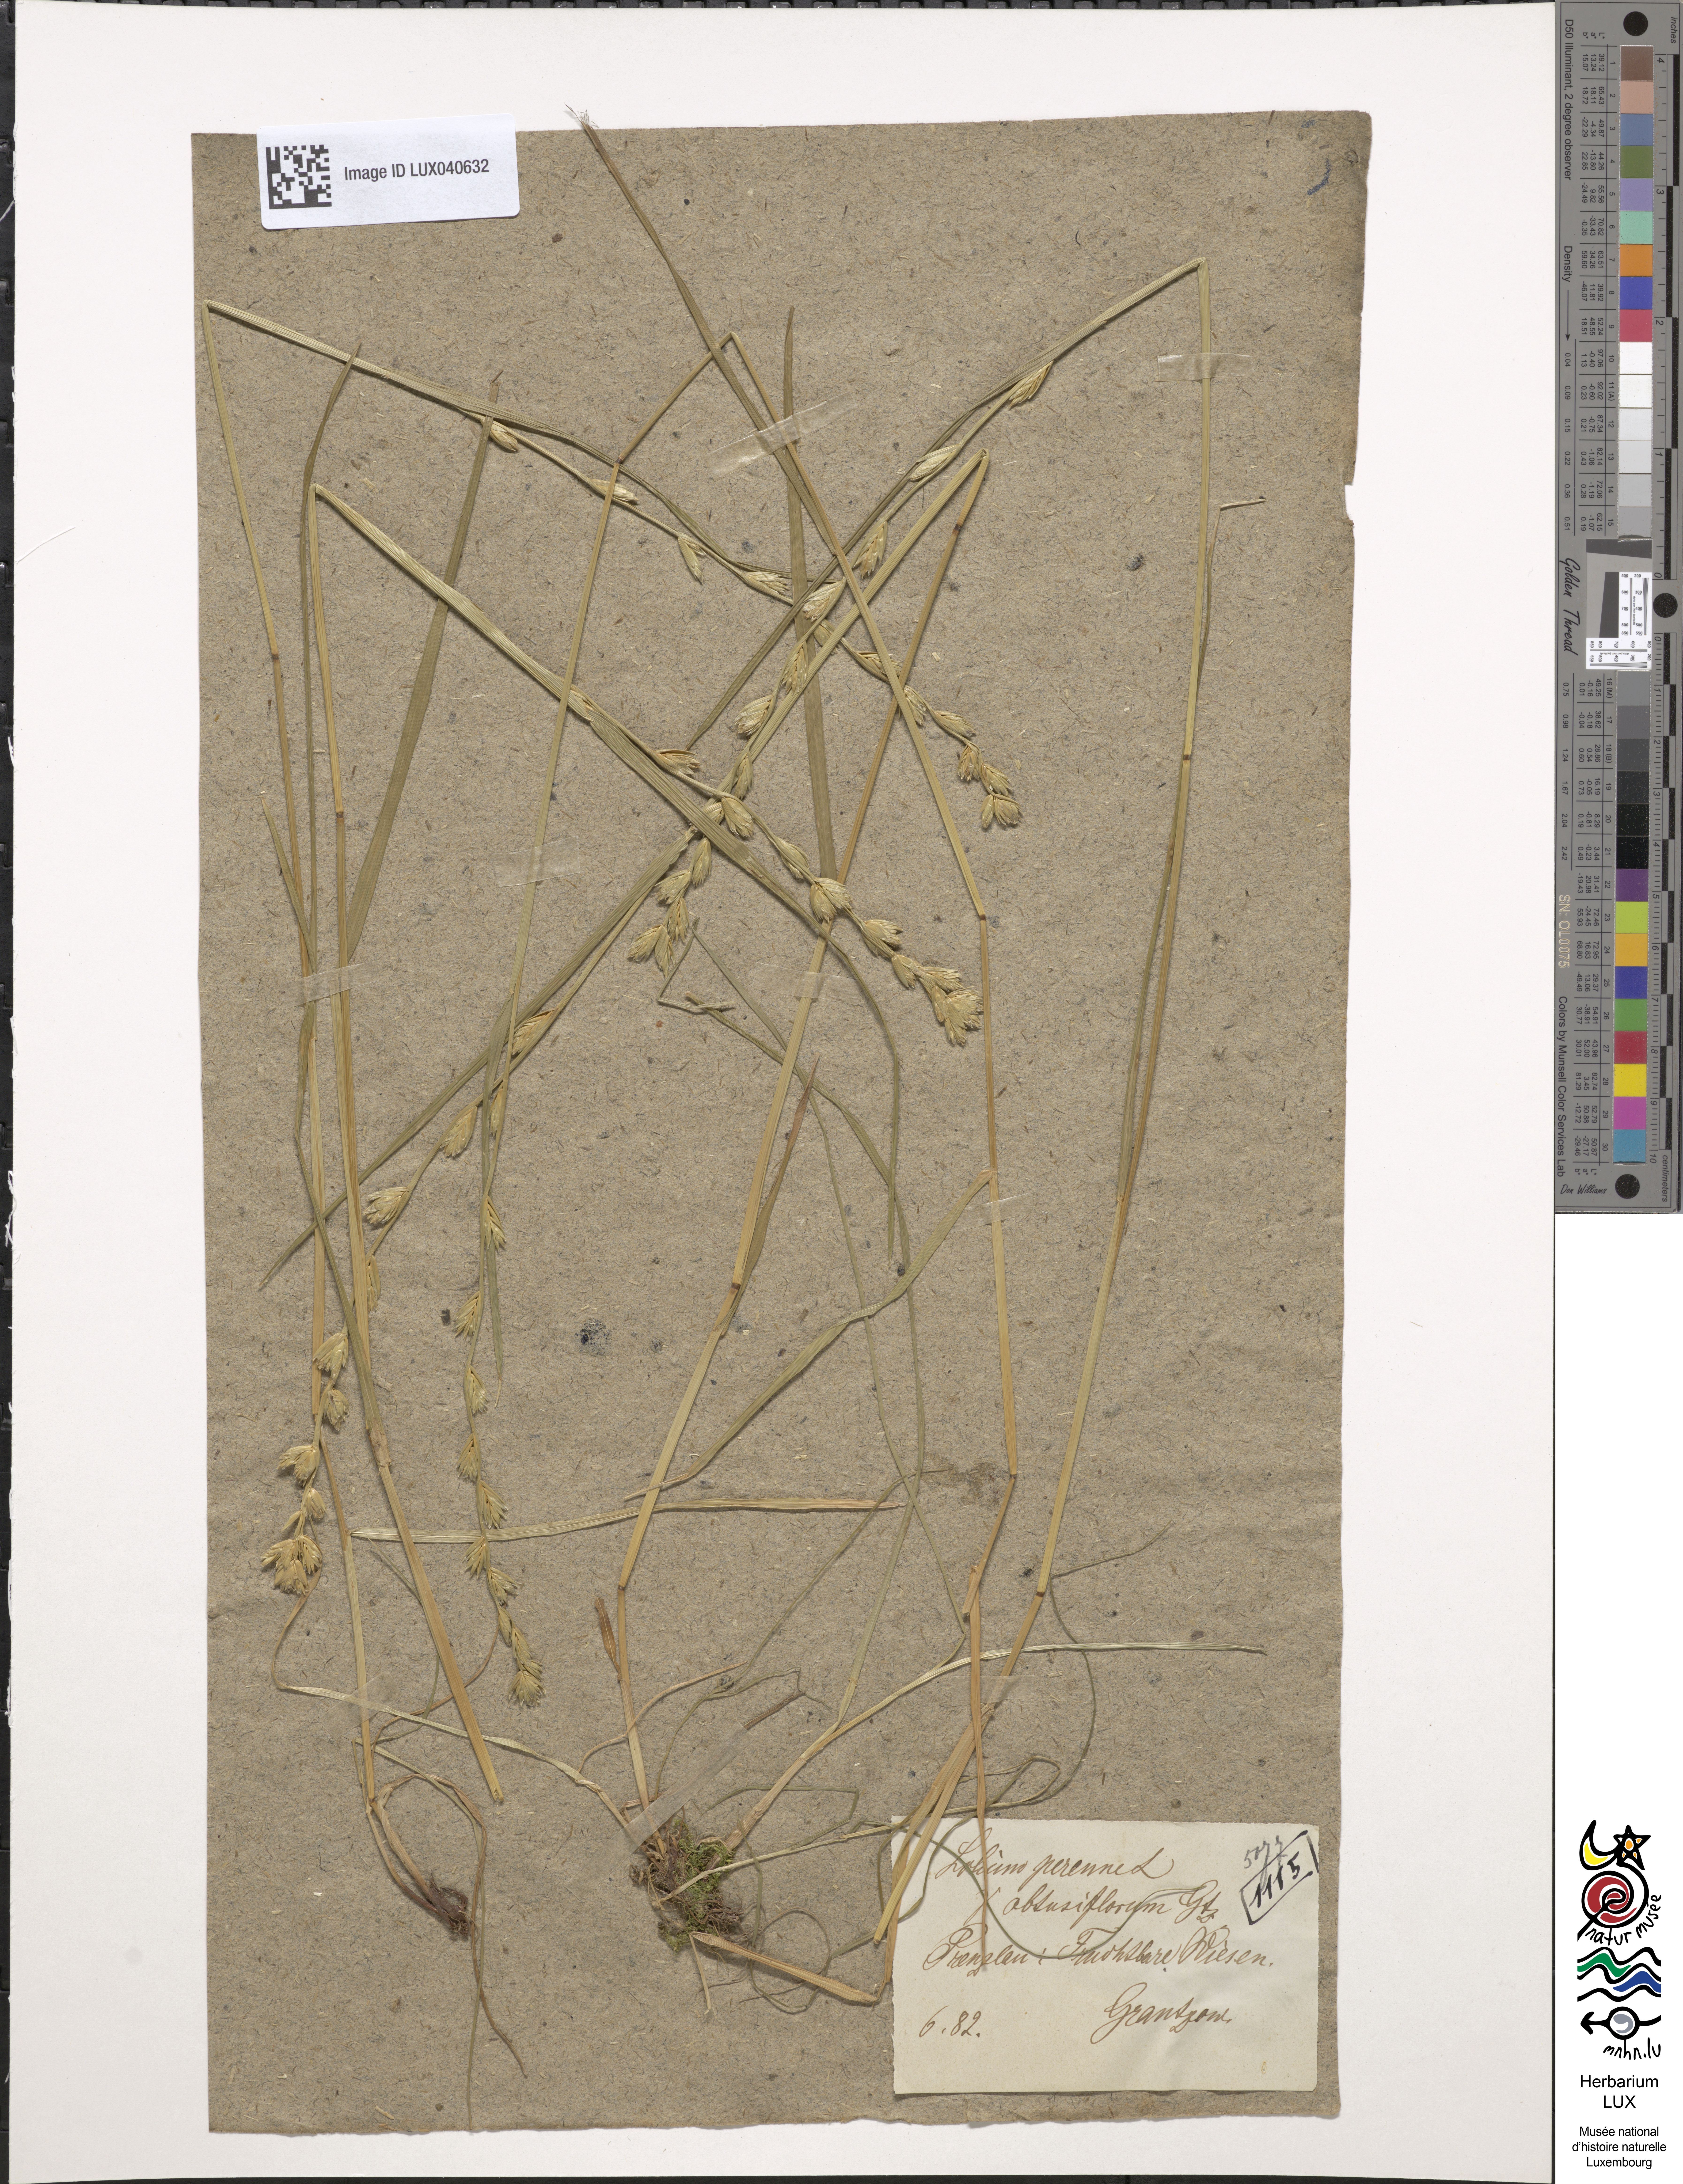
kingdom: Plantae
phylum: Tracheophyta
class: Liliopsida
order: Poales
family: Poaceae
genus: Lolium
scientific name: Lolium perenne
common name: Perennial ryegrass
